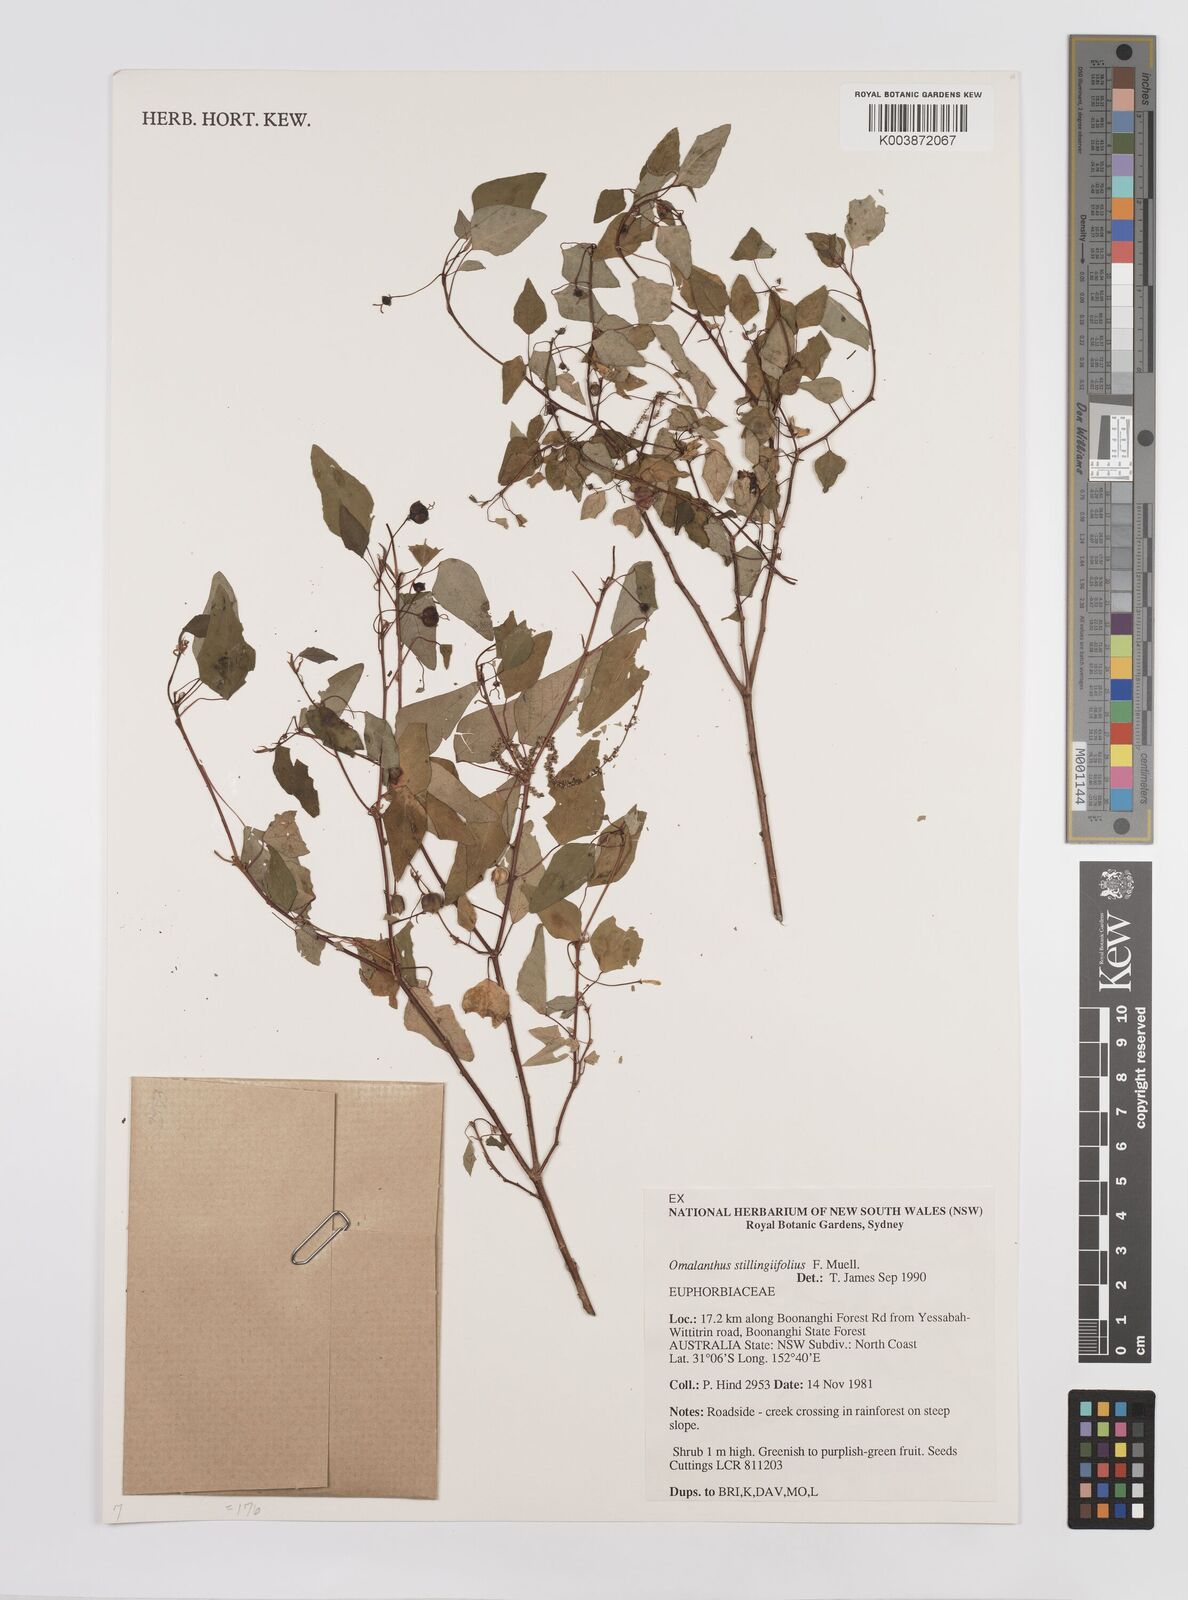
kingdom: Plantae
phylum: Tracheophyta
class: Magnoliopsida
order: Malpighiales
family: Euphorbiaceae
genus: Homalanthus
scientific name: Homalanthus stillingifolius
